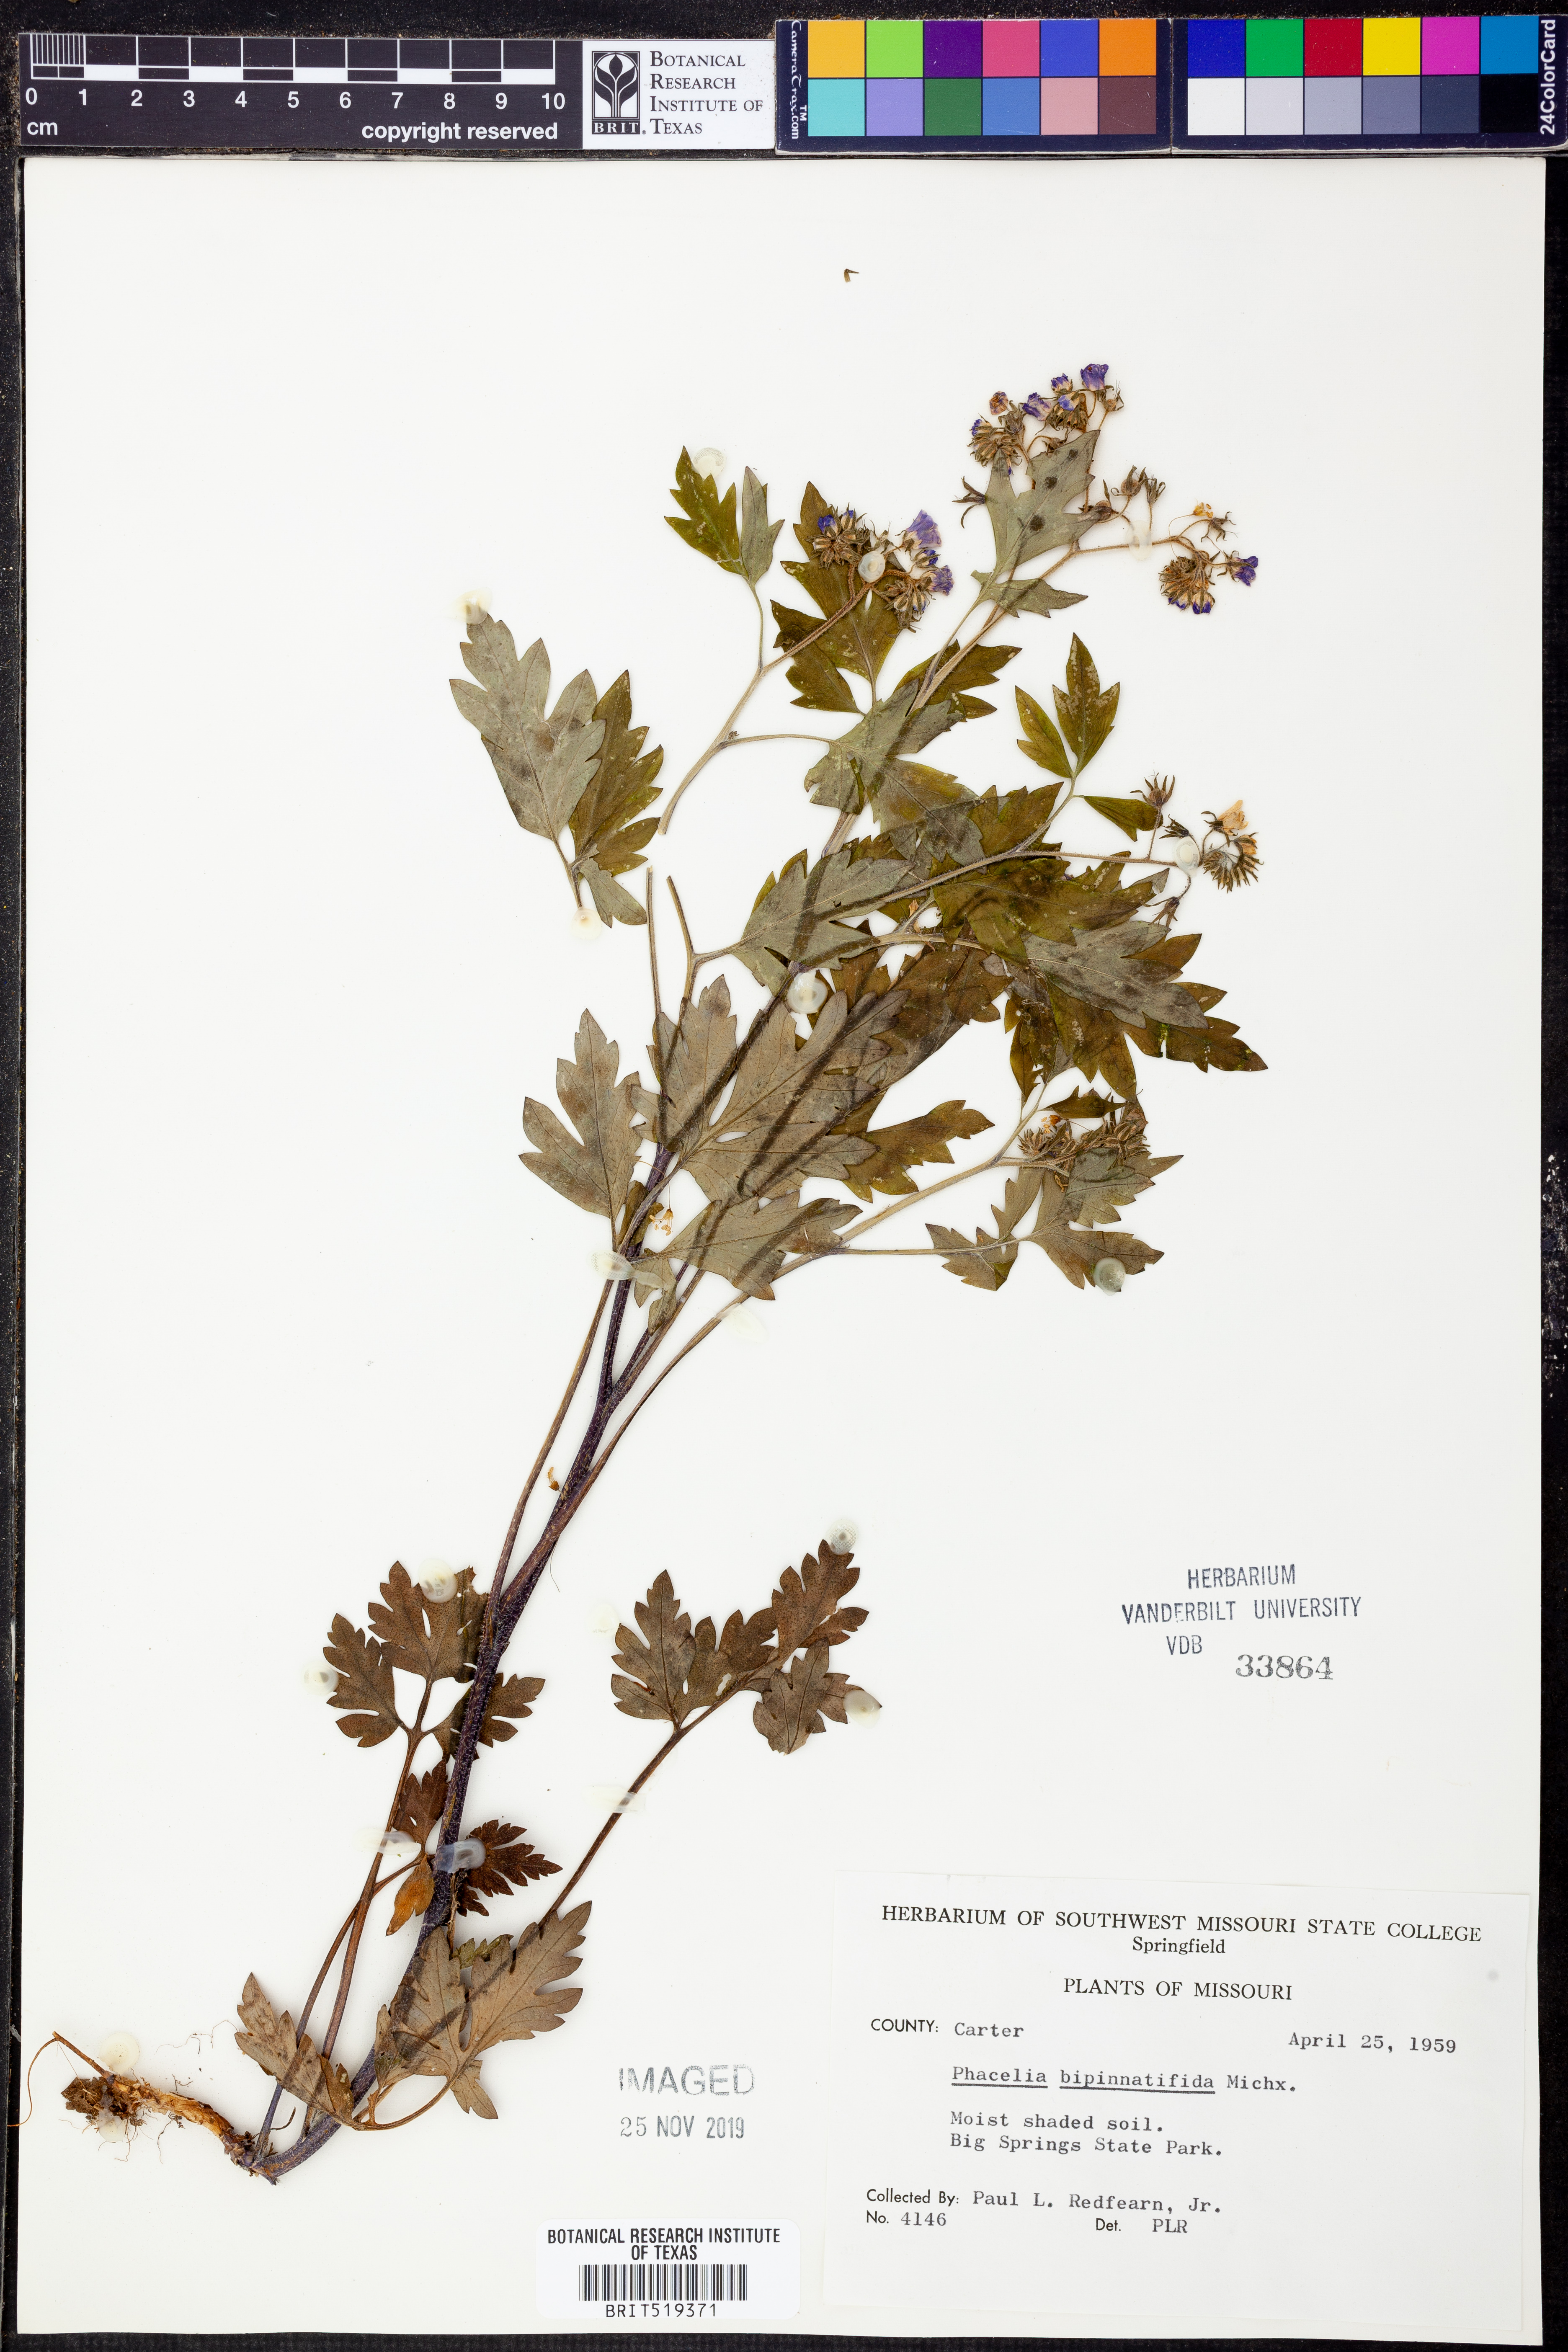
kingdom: Plantae
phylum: Tracheophyta
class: Magnoliopsida
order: Boraginales
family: Hydrophyllaceae
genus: Phacelia
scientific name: Phacelia bipinnatifida
